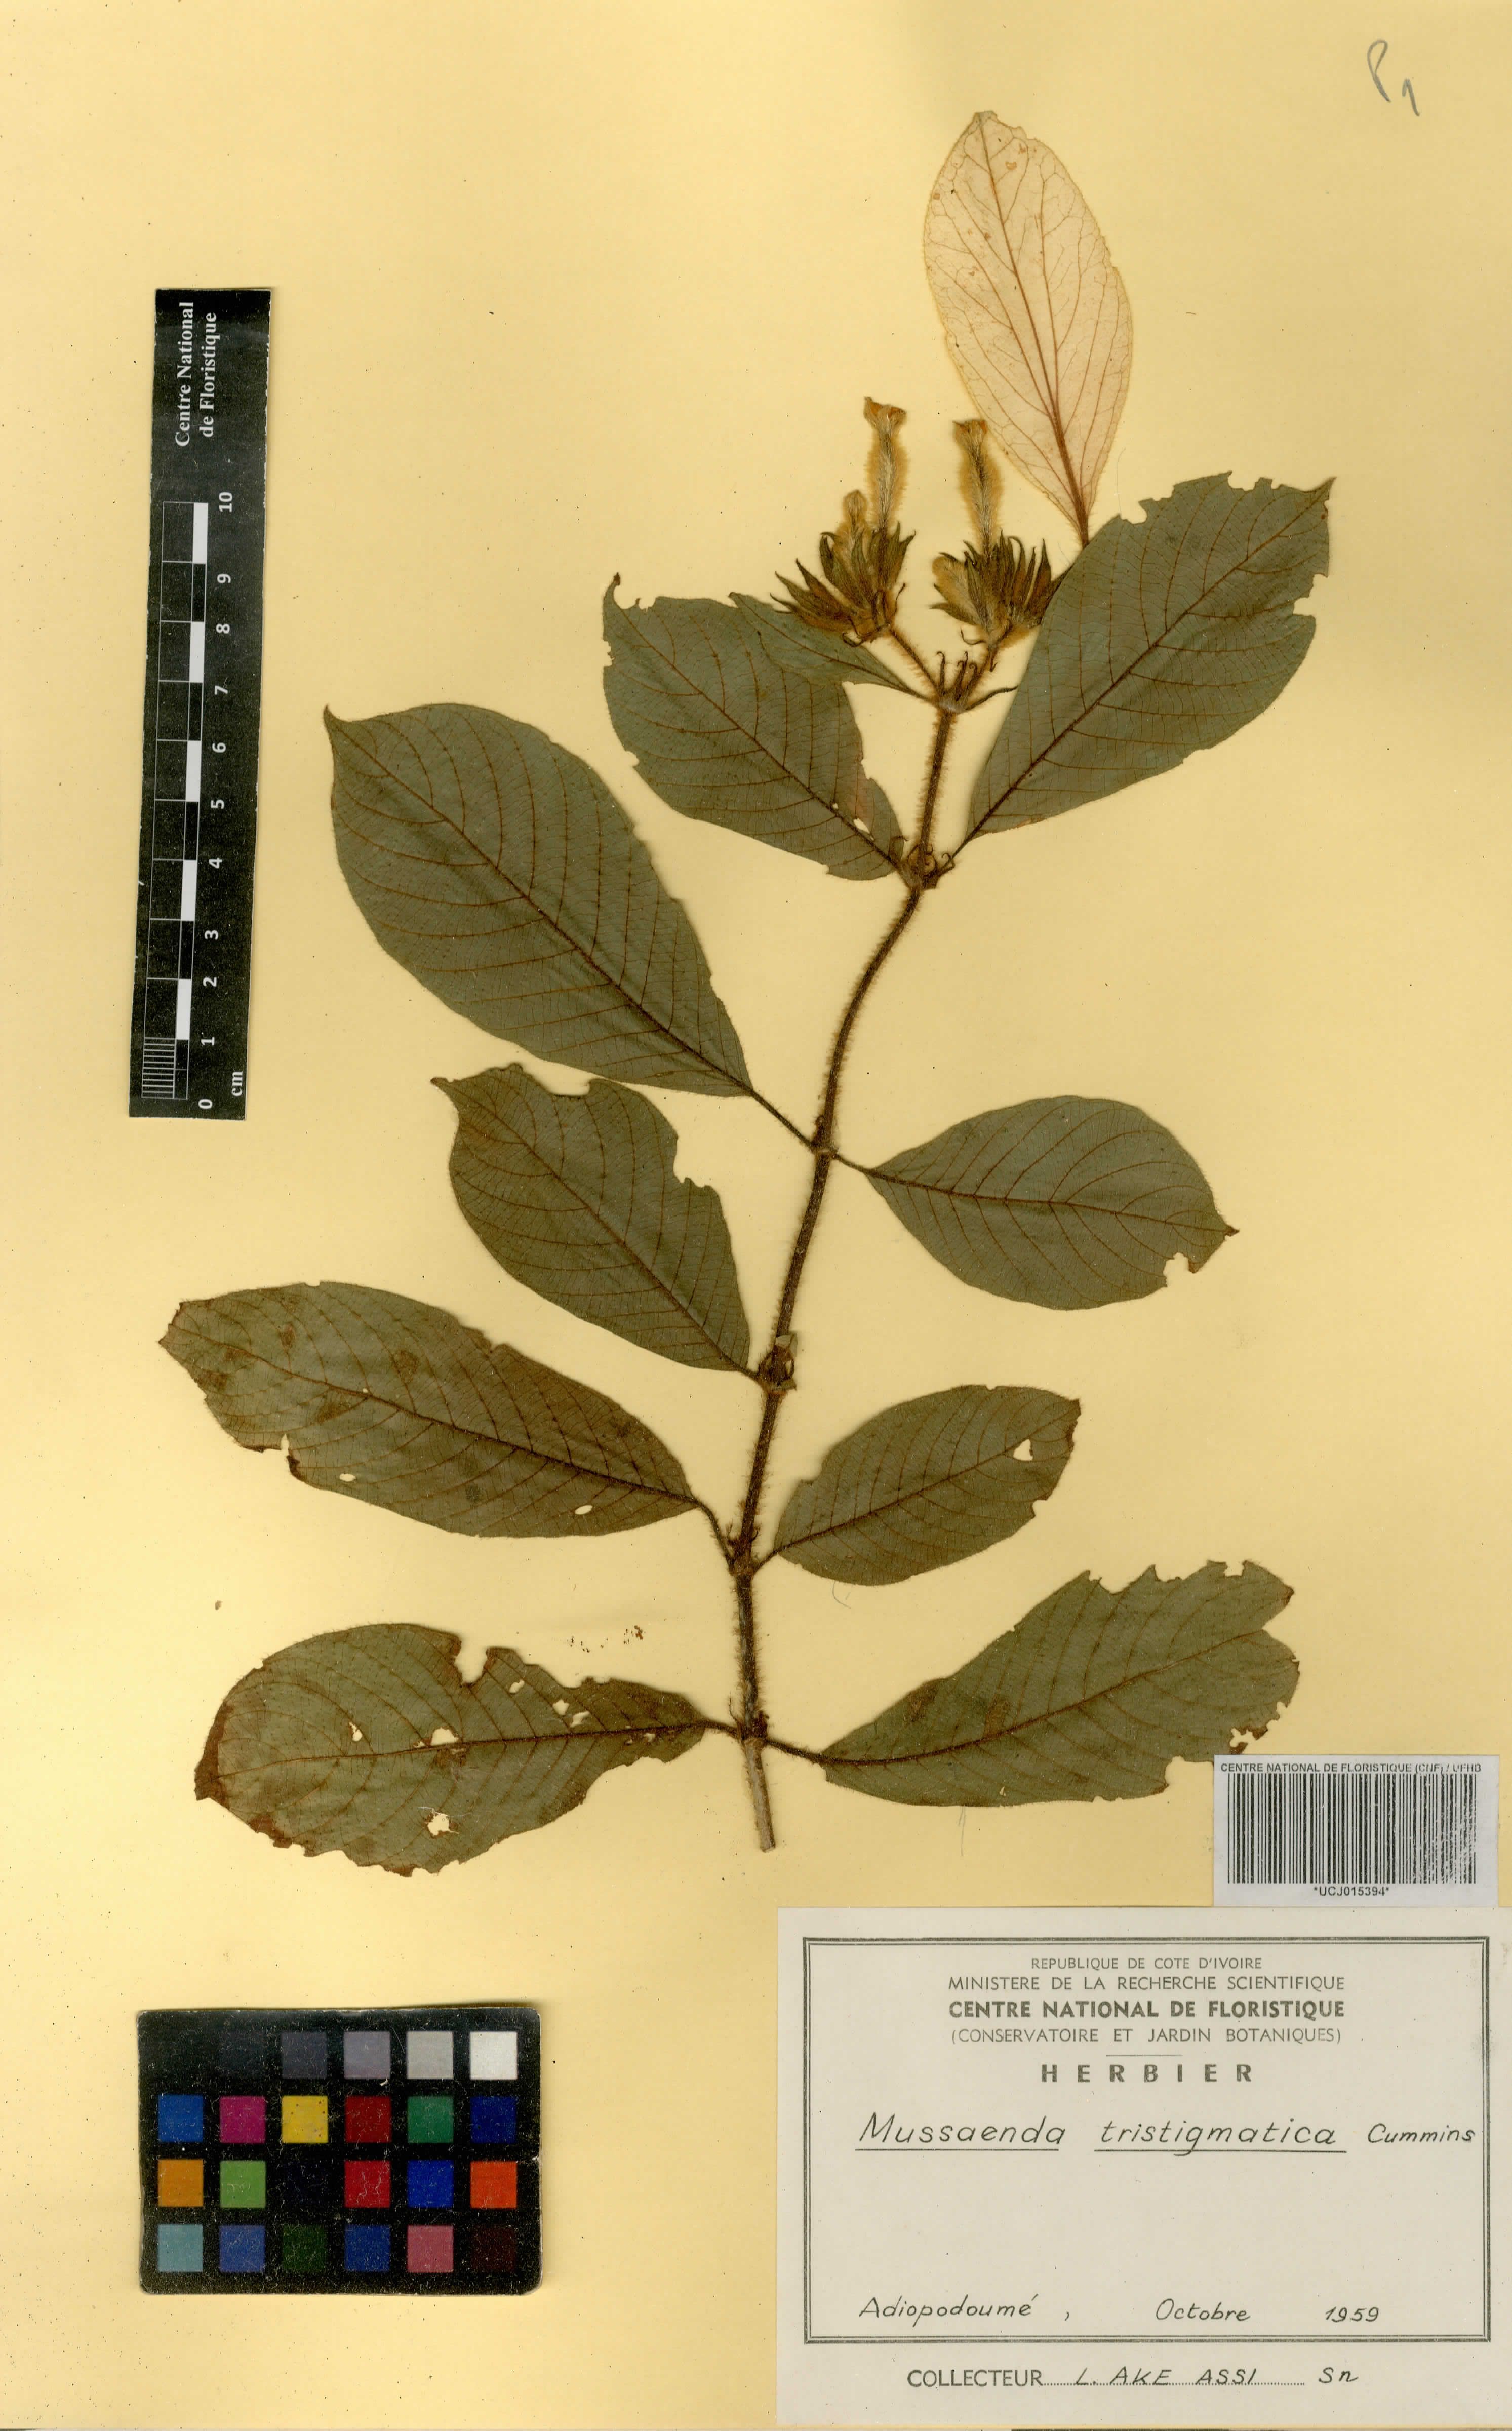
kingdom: Plantae
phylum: Tracheophyta
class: Magnoliopsida
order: Gentianales
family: Rubiaceae
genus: Mussaenda
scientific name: Mussaenda tristigmatica
